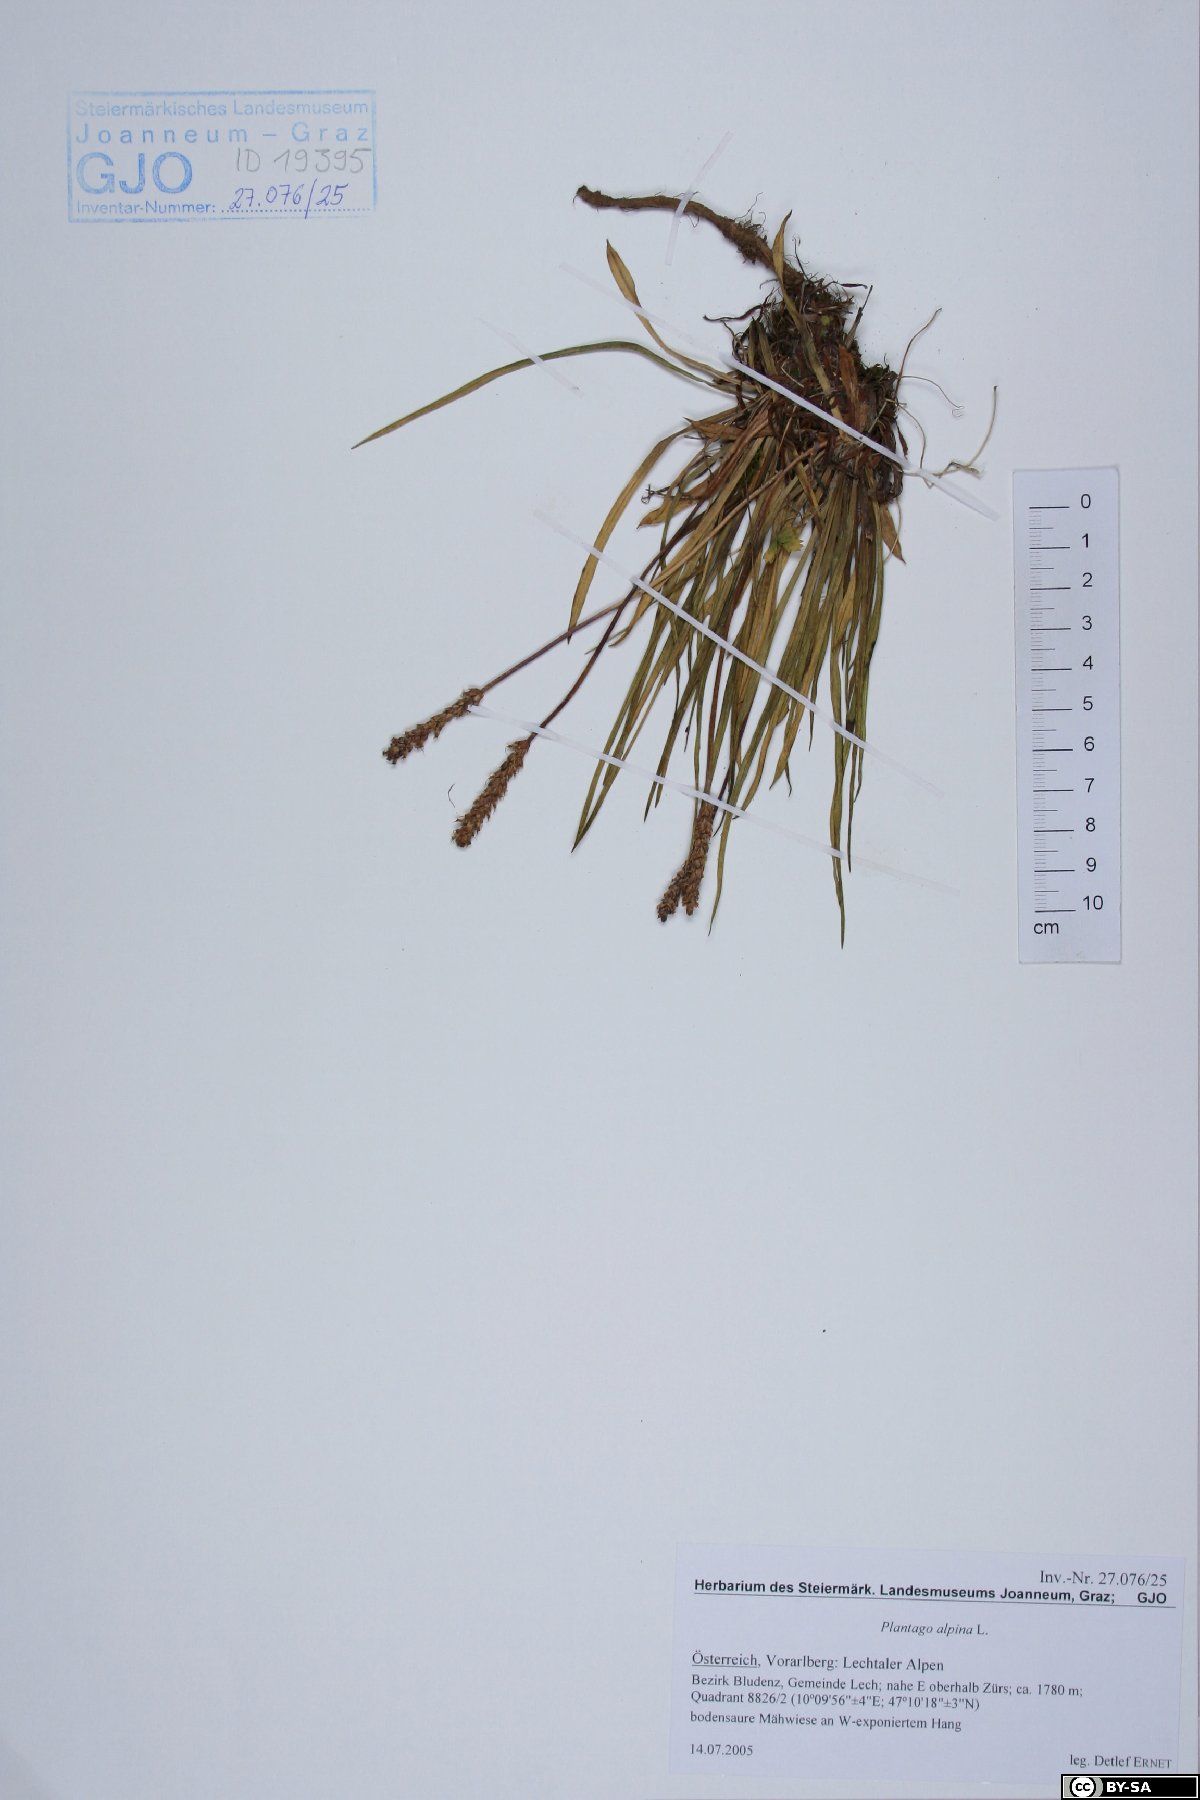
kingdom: Plantae
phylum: Tracheophyta
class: Magnoliopsida
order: Lamiales
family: Plantaginaceae
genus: Plantago
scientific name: Plantago alpina
